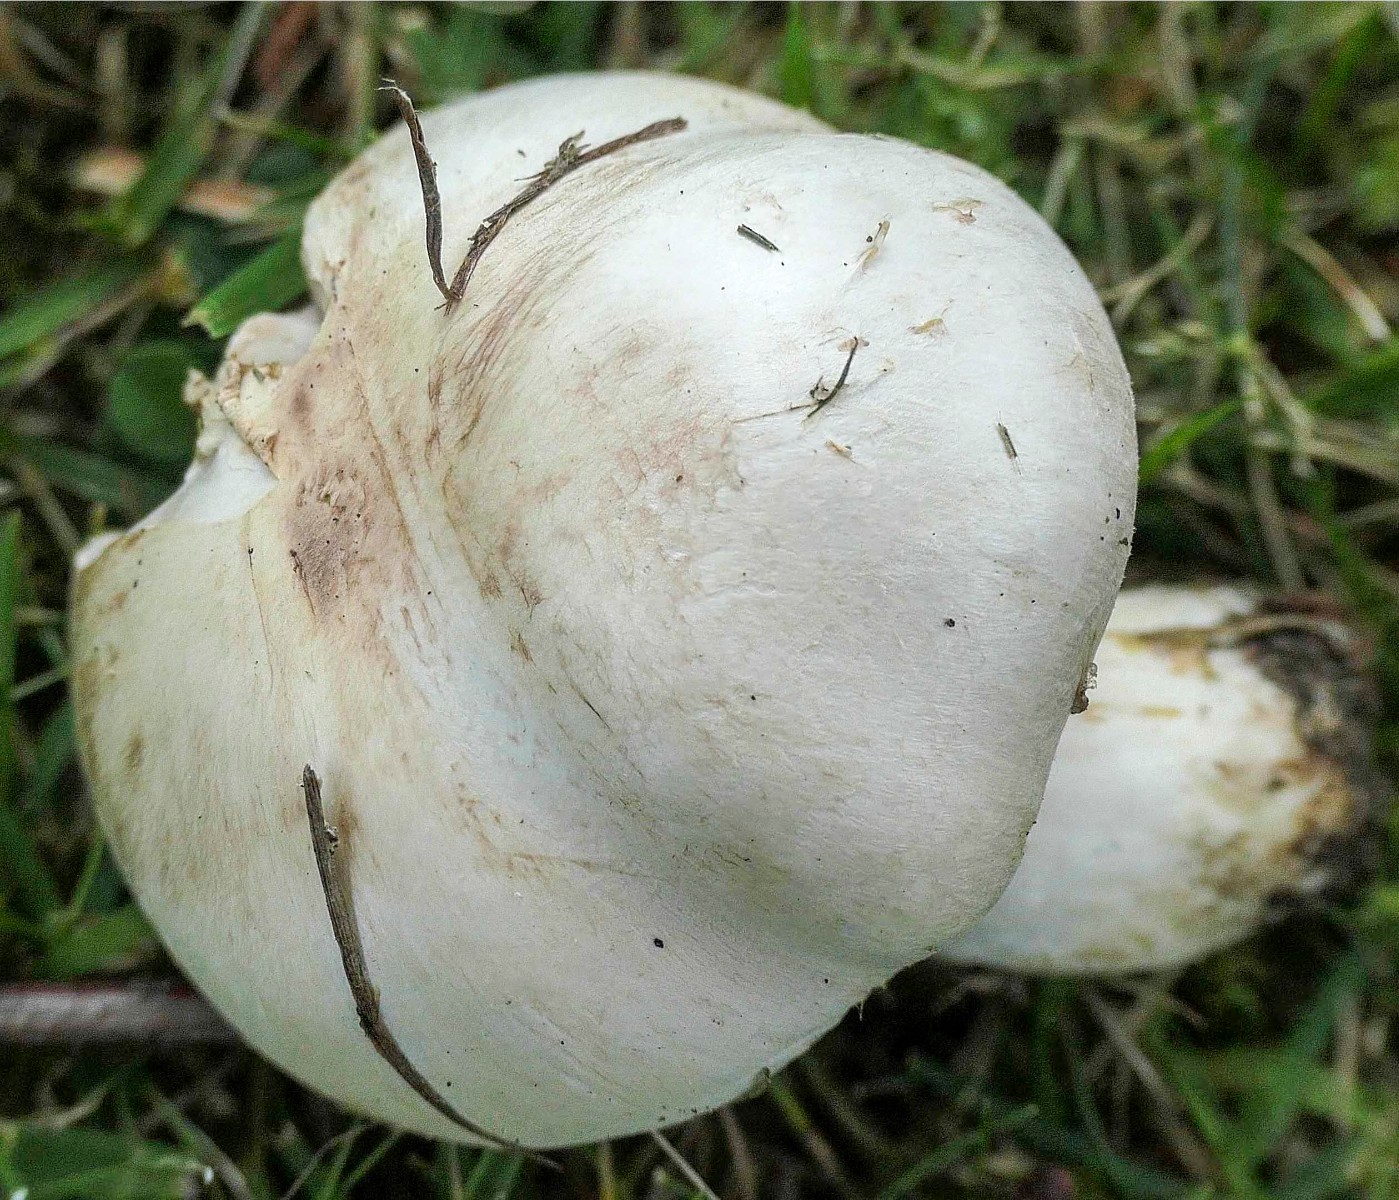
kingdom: Fungi
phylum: Basidiomycota
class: Agaricomycetes
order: Agaricales
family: Agaricaceae
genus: Agaricus
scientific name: Agaricus dulcidulus
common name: blegrød champignon
